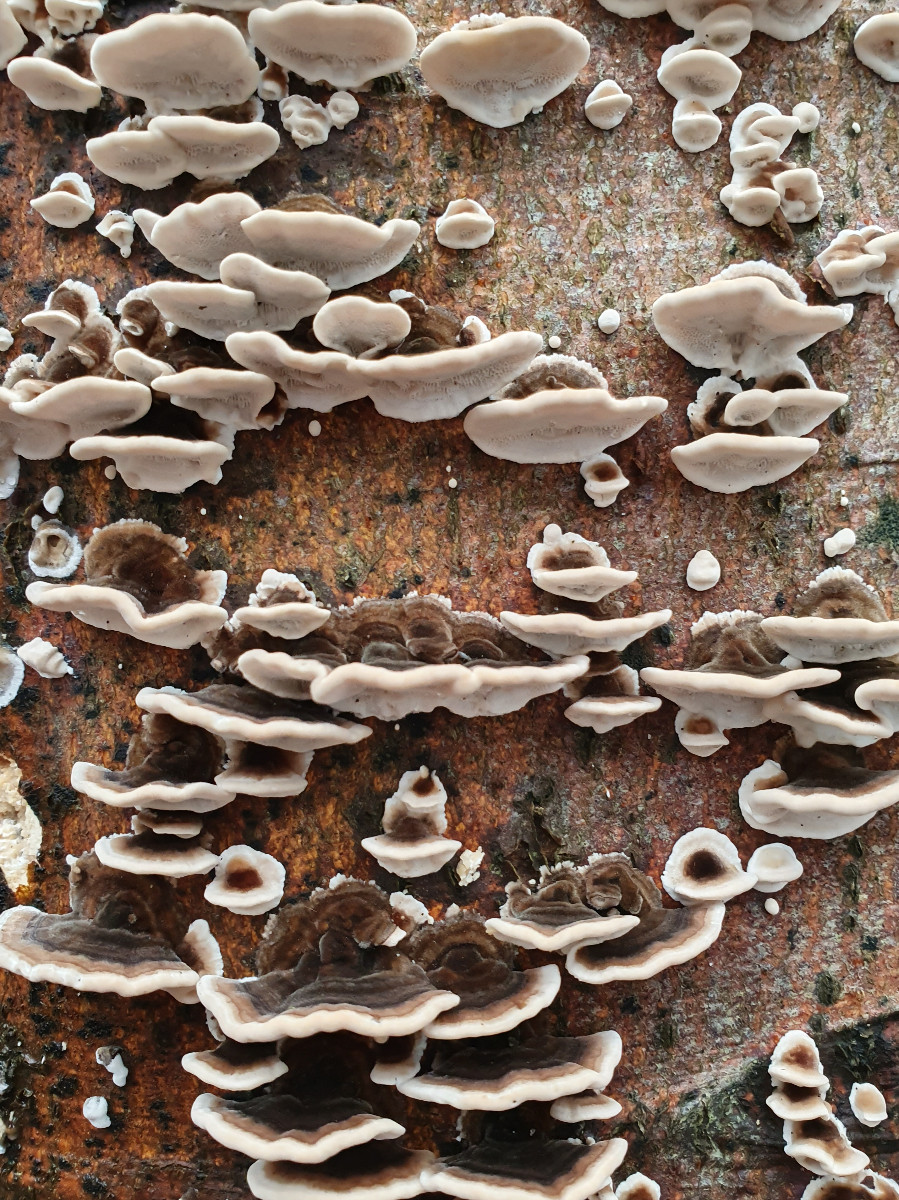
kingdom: Fungi
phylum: Basidiomycota
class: Agaricomycetes
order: Polyporales
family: Phanerochaetaceae
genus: Bjerkandera
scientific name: Bjerkandera adusta
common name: sveden sodporesvamp
